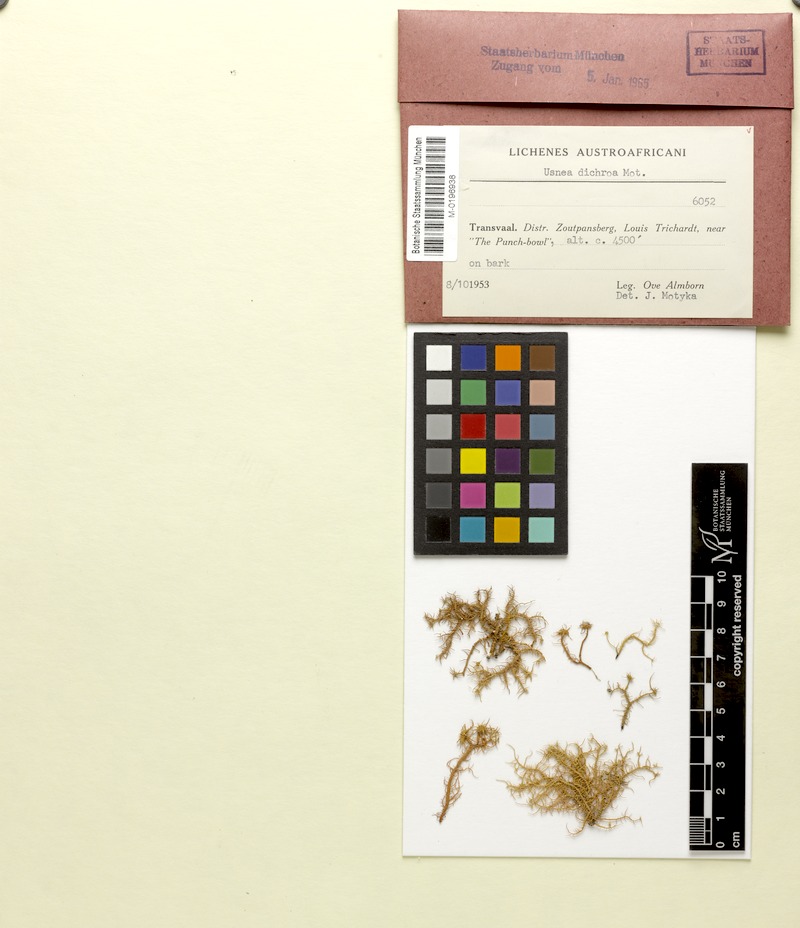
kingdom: Fungi
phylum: Ascomycota
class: Lecanoromycetes
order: Lecanorales
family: Parmeliaceae
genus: Usnea
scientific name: Usnea
